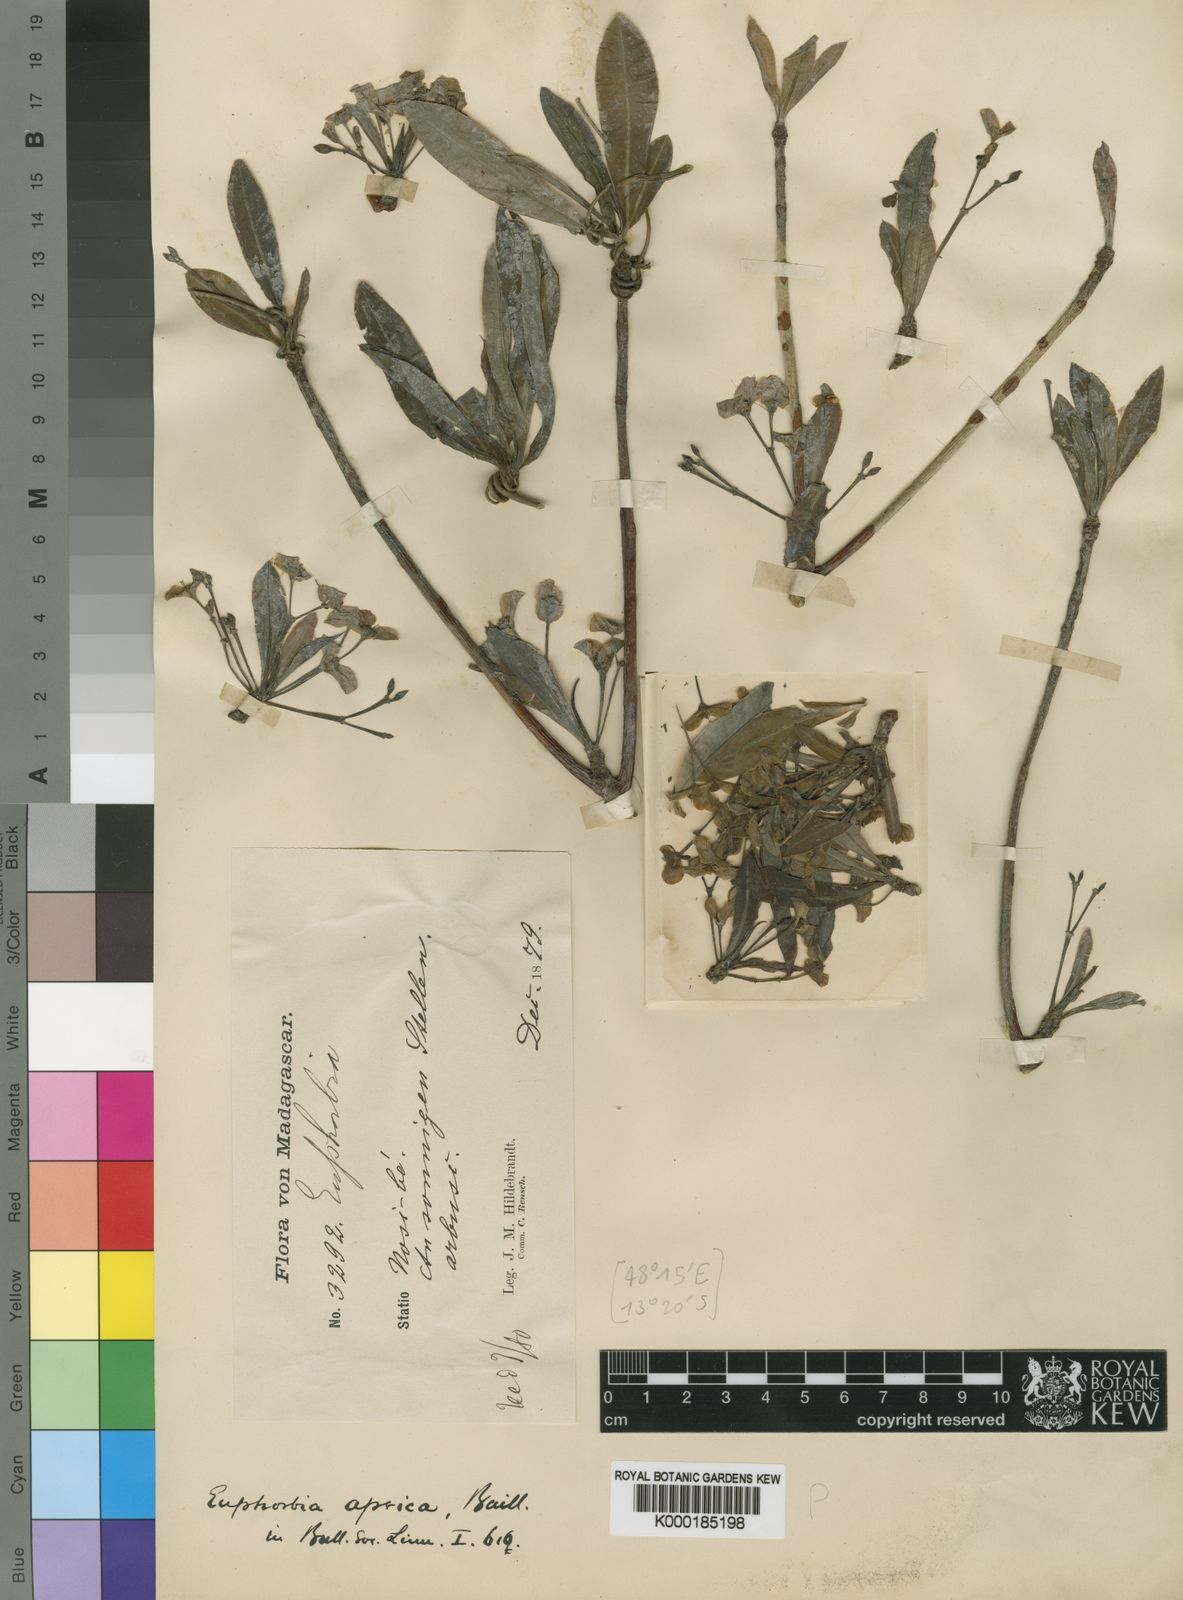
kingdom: Plantae
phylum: Tracheophyta
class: Magnoliopsida
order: Malpighiales
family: Euphorbiaceae
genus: Euphorbia
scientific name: Euphorbia aprica
